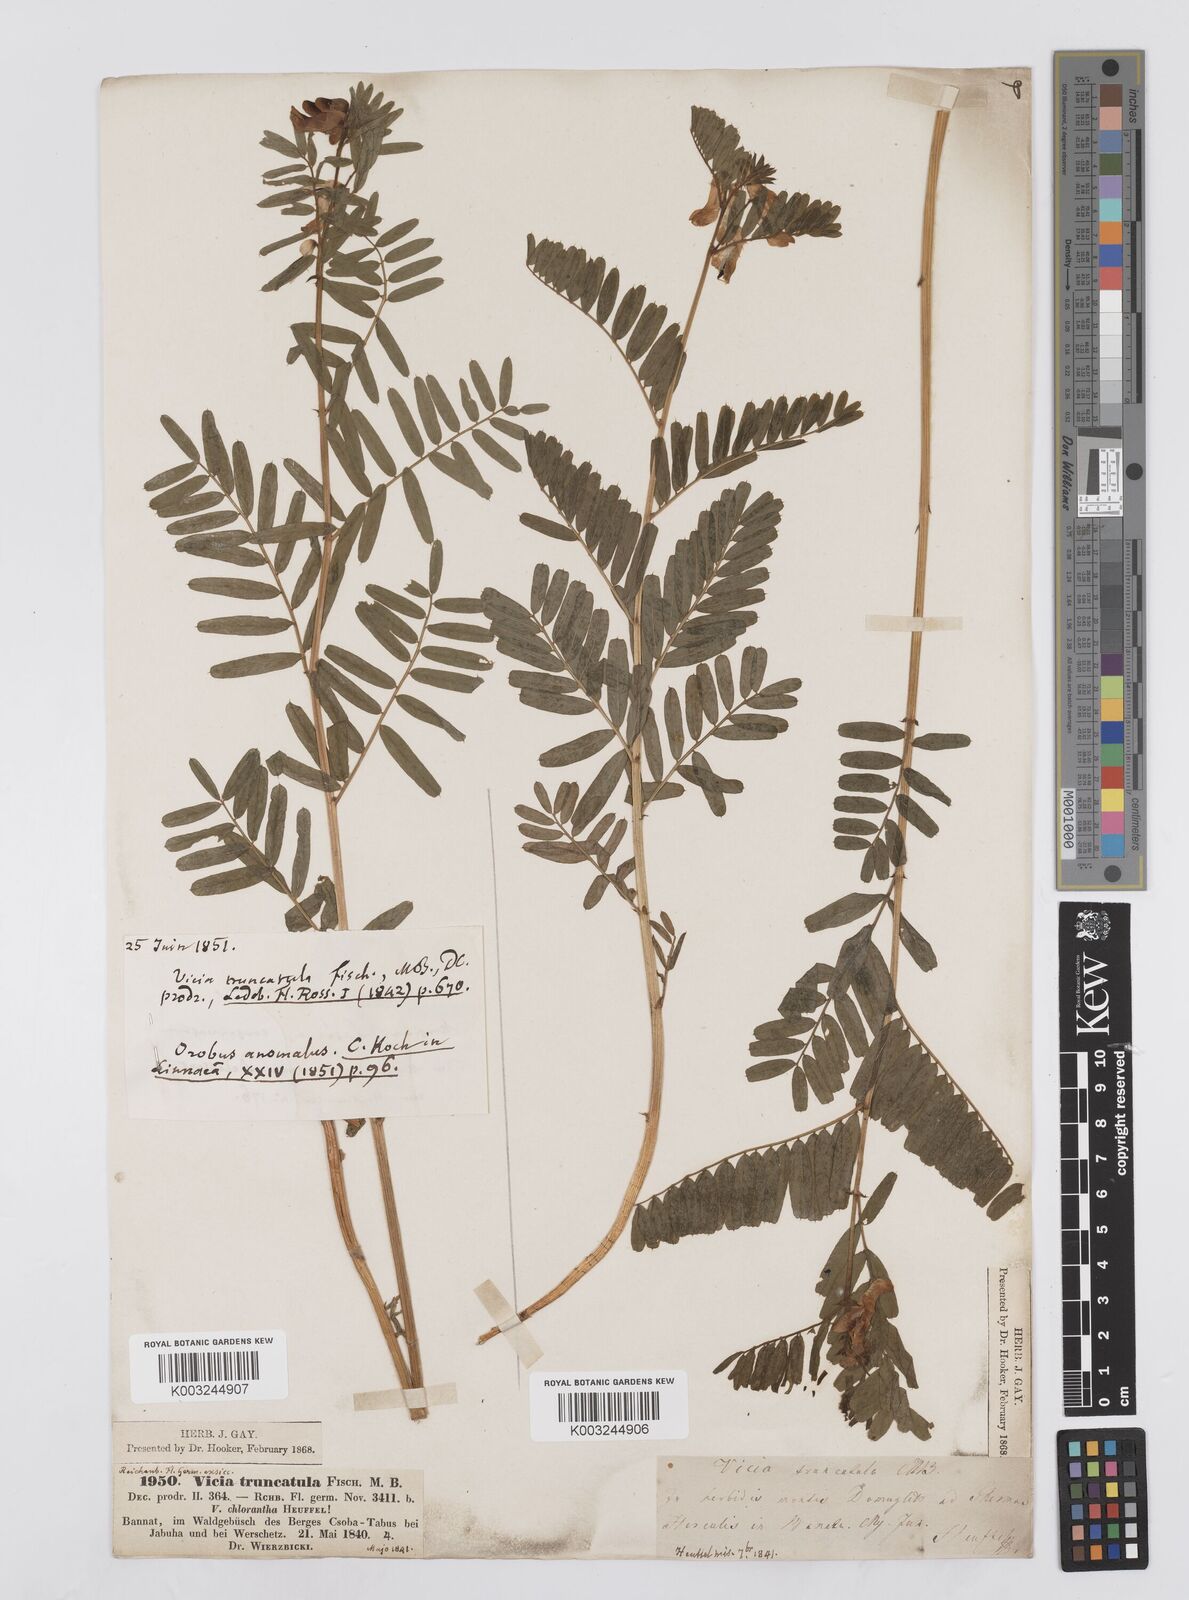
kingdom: Plantae
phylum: Tracheophyta
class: Magnoliopsida
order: Fabales
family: Fabaceae
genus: Vicia
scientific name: Vicia abbreviata
